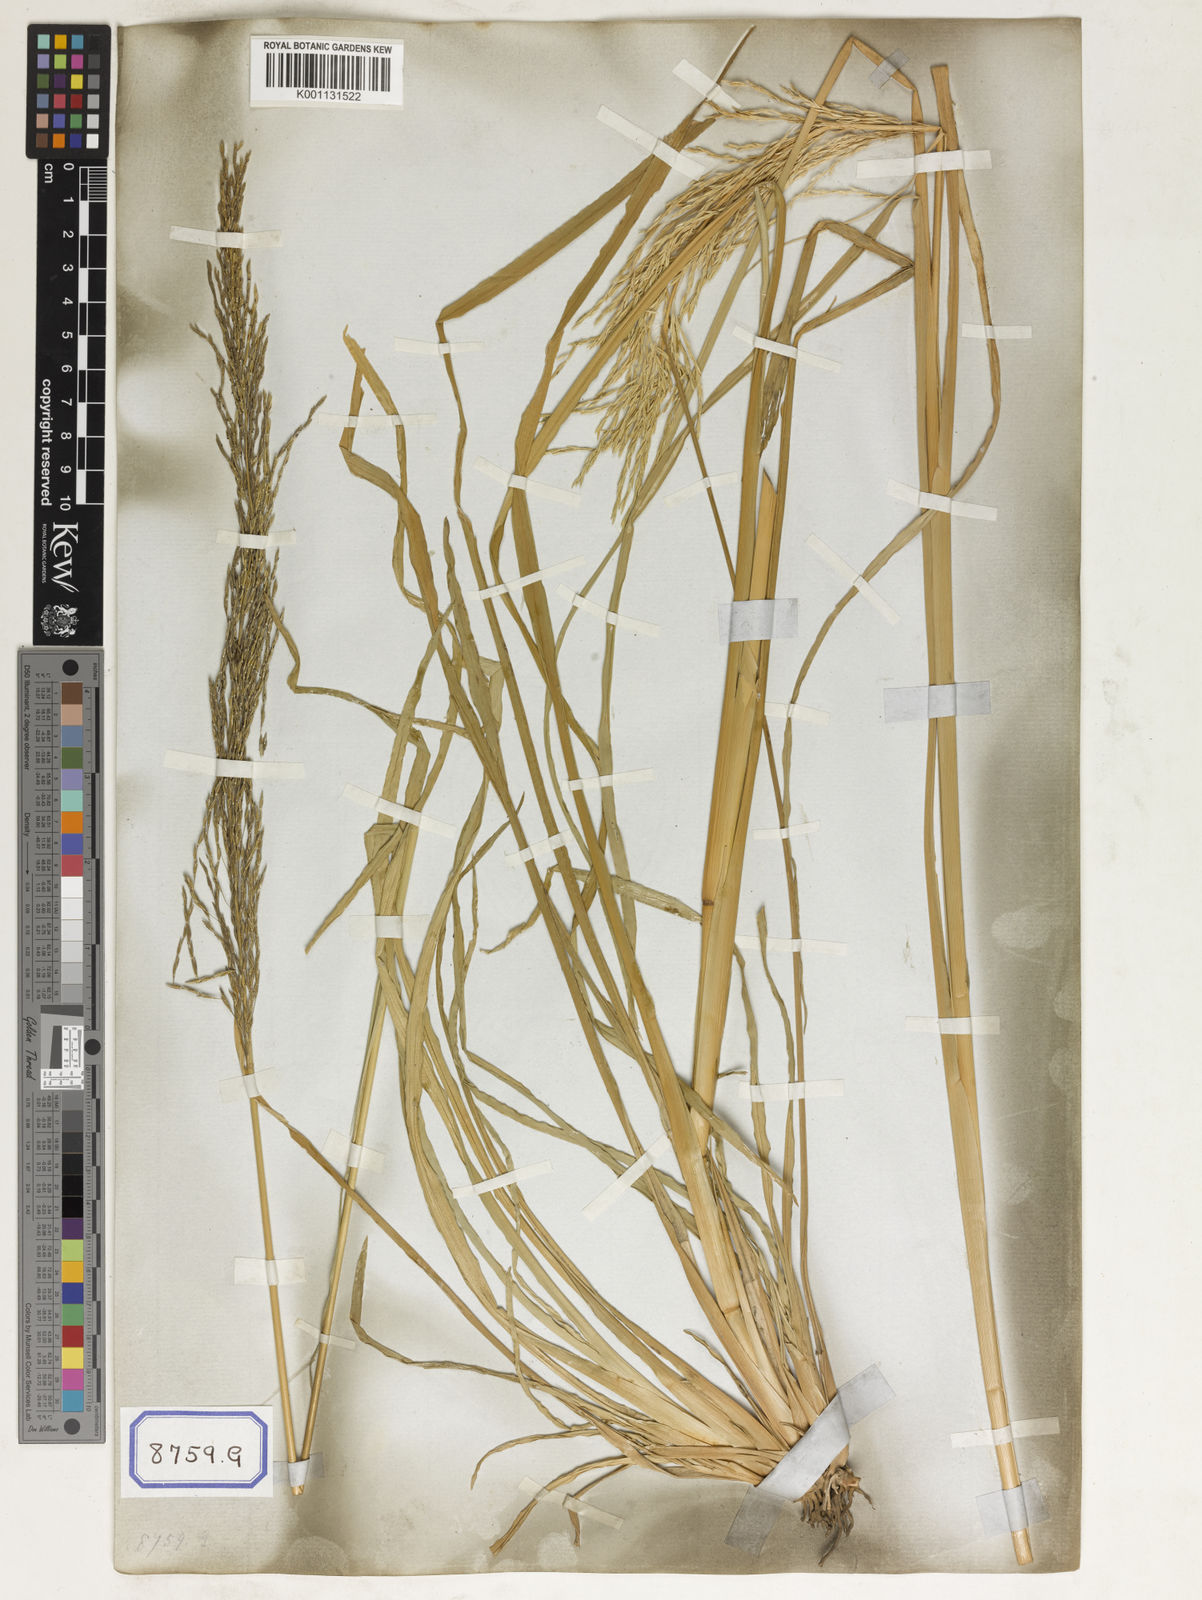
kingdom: Plantae
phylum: Tracheophyta
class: Liliopsida
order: Poales
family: Poaceae
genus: Chrysopogon
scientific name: Chrysopogon zizanioides
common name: False beardgrass
